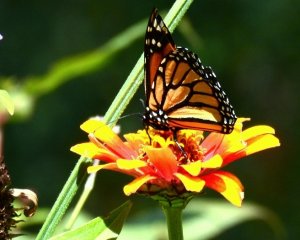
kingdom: Animalia
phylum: Arthropoda
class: Insecta
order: Lepidoptera
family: Nymphalidae
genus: Danaus
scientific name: Danaus plexippus
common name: Monarch
